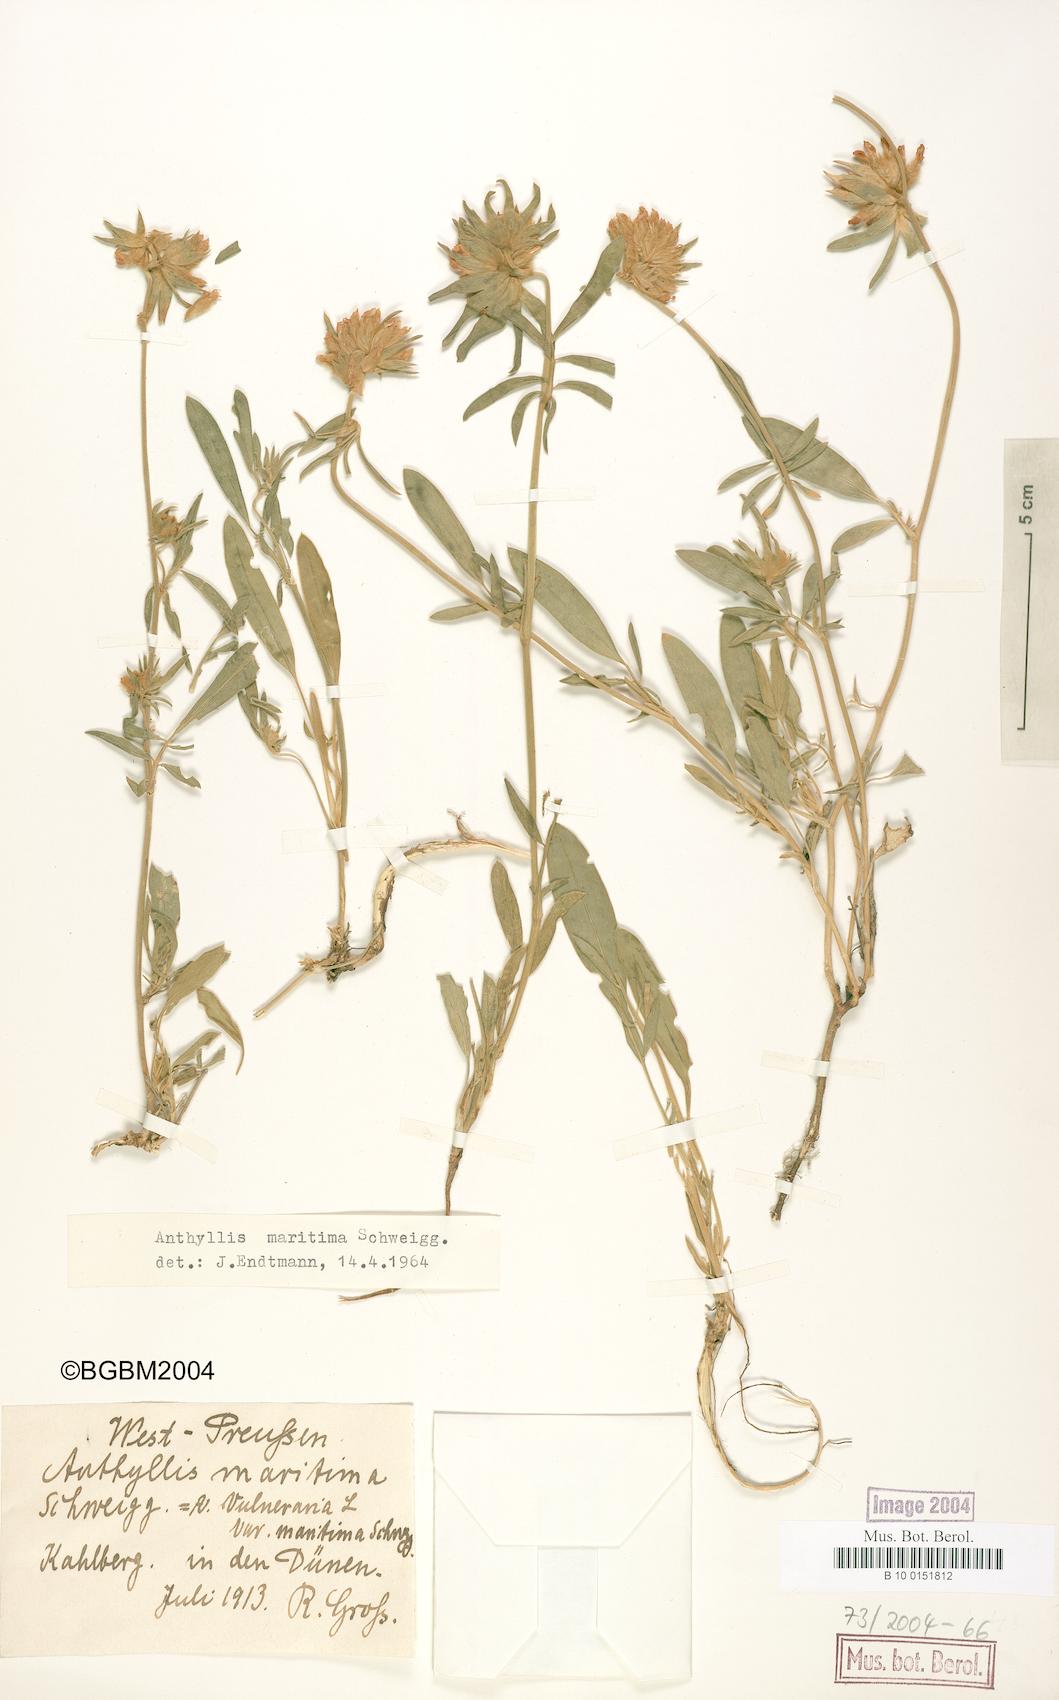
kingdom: Plantae
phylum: Tracheophyta
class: Magnoliopsida
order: Fabales
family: Fabaceae
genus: Anthyllis
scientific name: Anthyllis vulneraria
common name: Kidney vetch
